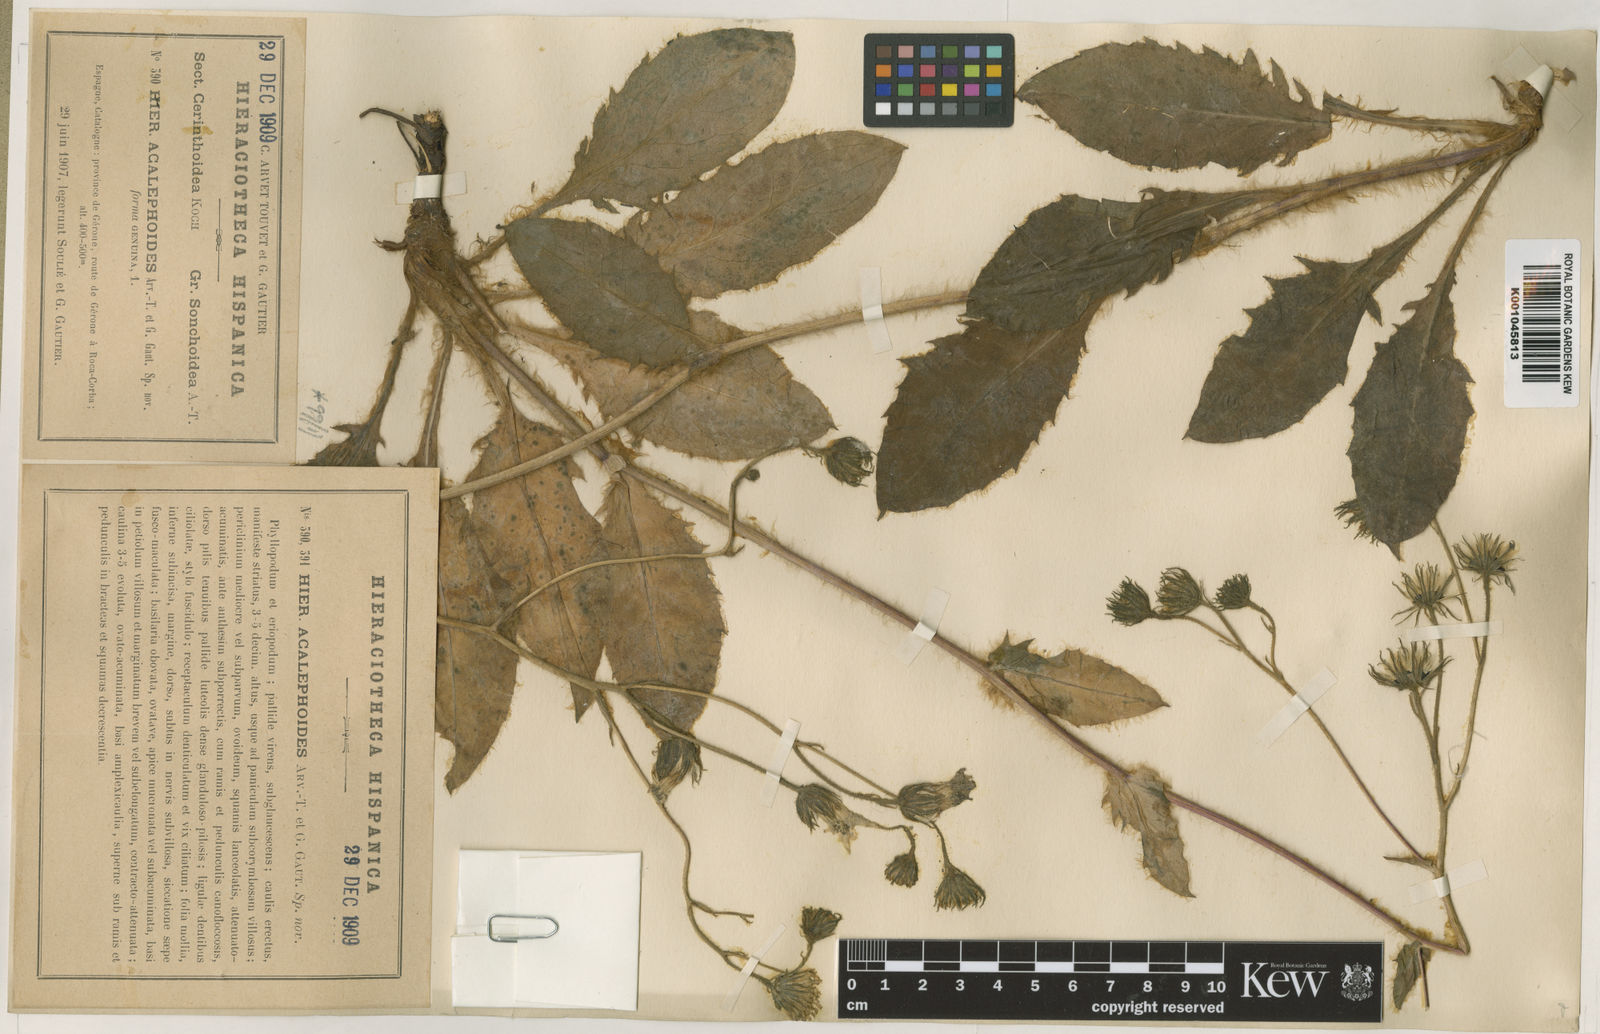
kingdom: Plantae
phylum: Tracheophyta
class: Magnoliopsida
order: Asterales
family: Asteraceae
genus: Hieracium
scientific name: Hieracium sonchoides
